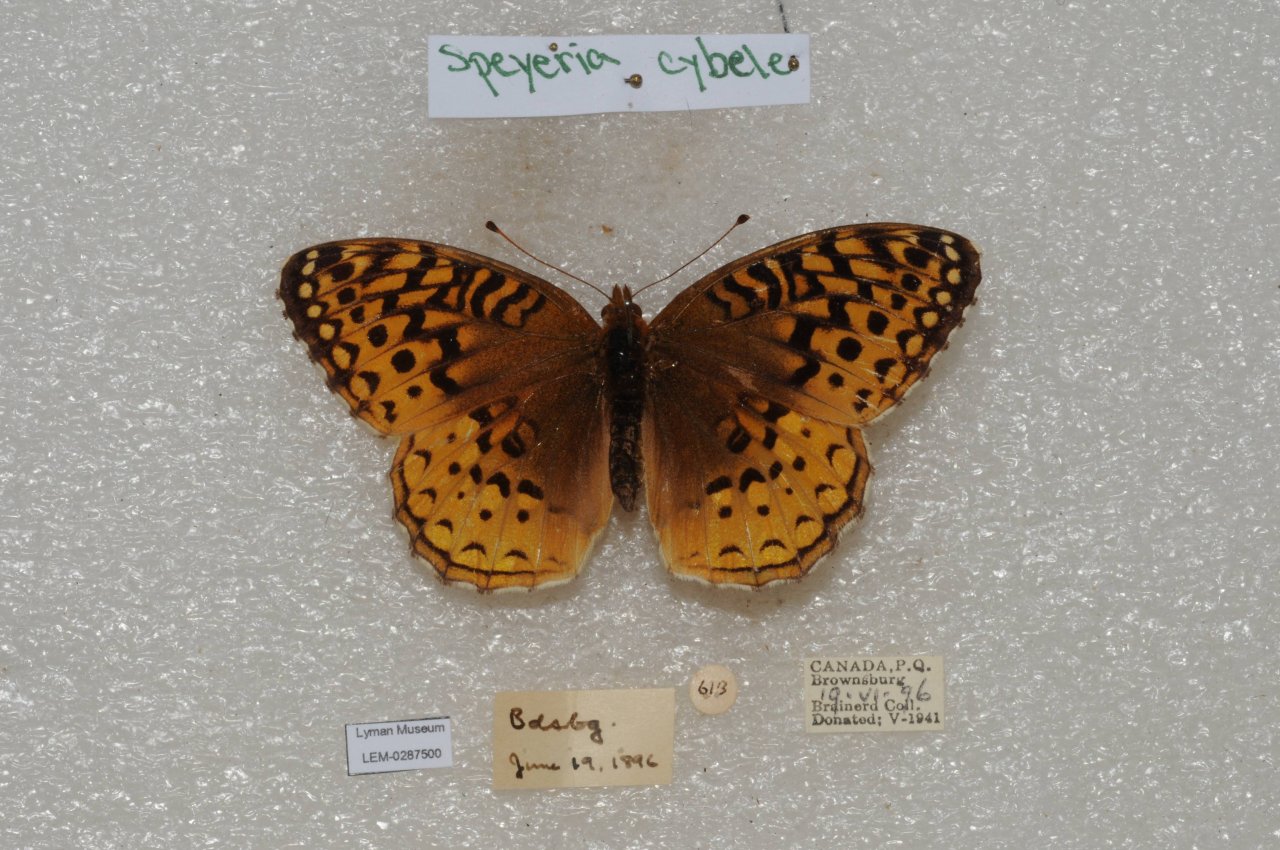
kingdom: Animalia
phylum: Arthropoda
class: Insecta
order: Lepidoptera
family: Nymphalidae
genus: Speyeria
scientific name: Speyeria cybele
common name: Great Spangled Fritillary
